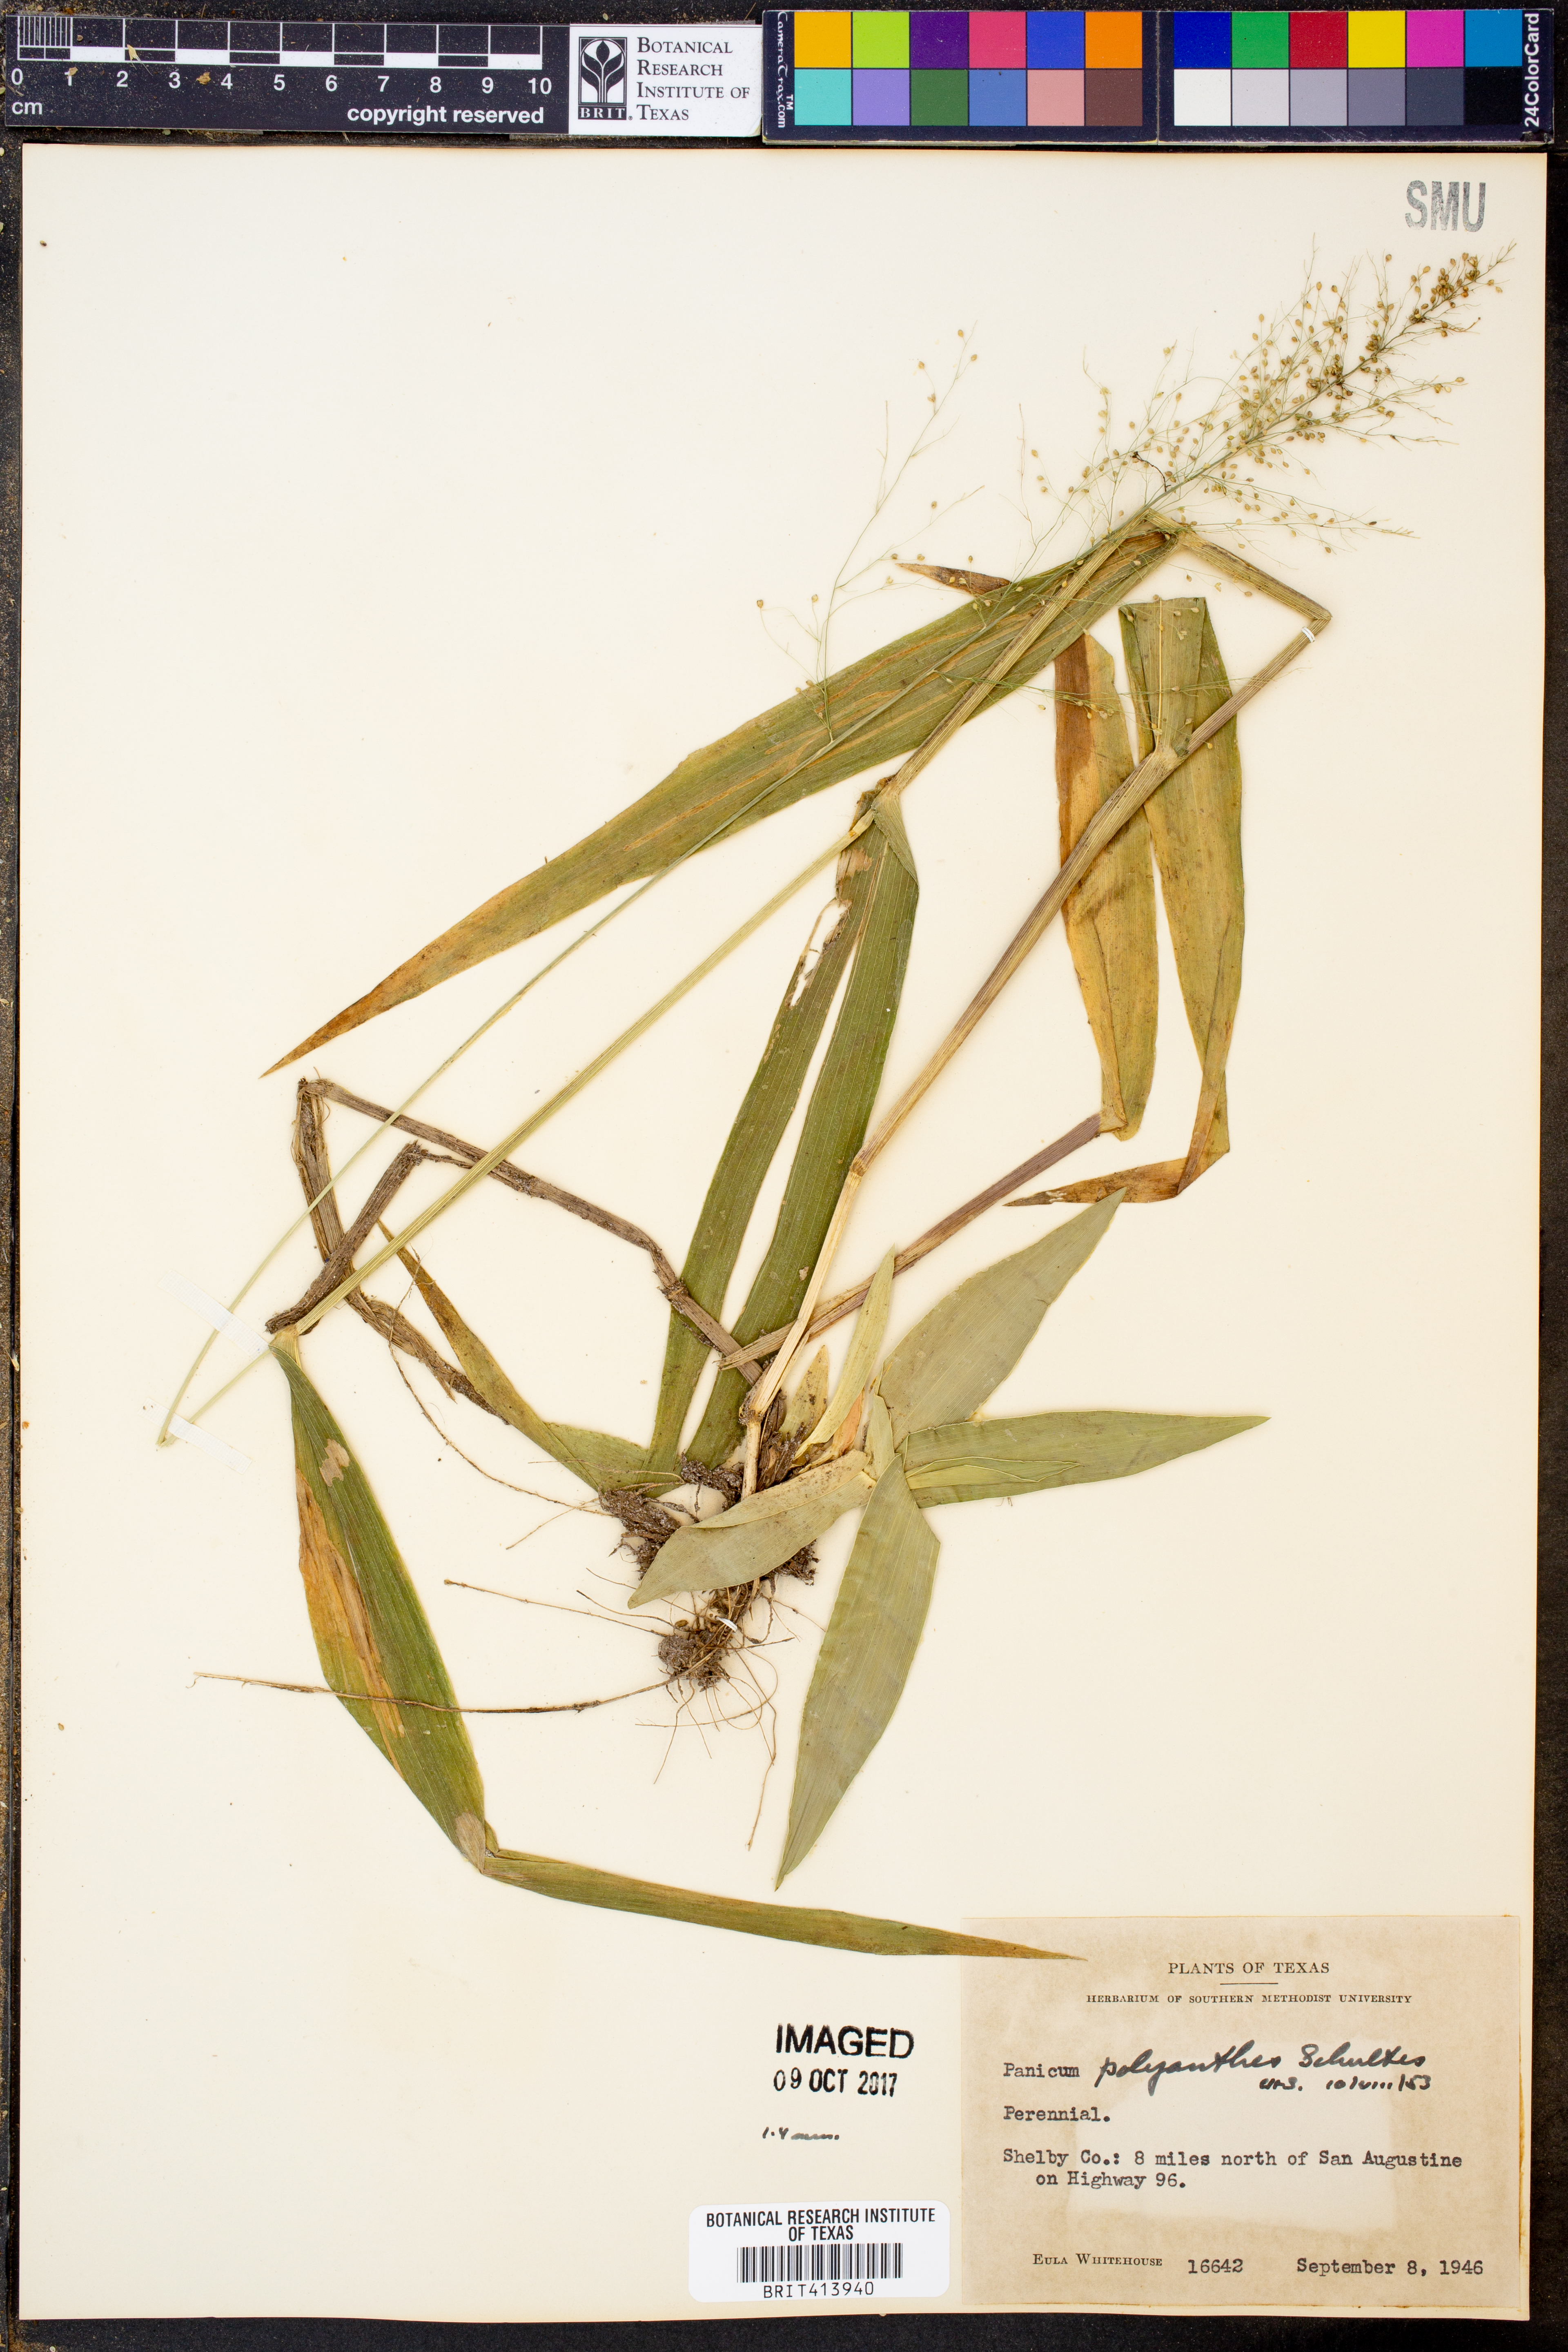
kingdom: Plantae
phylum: Tracheophyta
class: Liliopsida
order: Poales
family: Poaceae
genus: Dichanthelium
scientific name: Dichanthelium polyanthes
